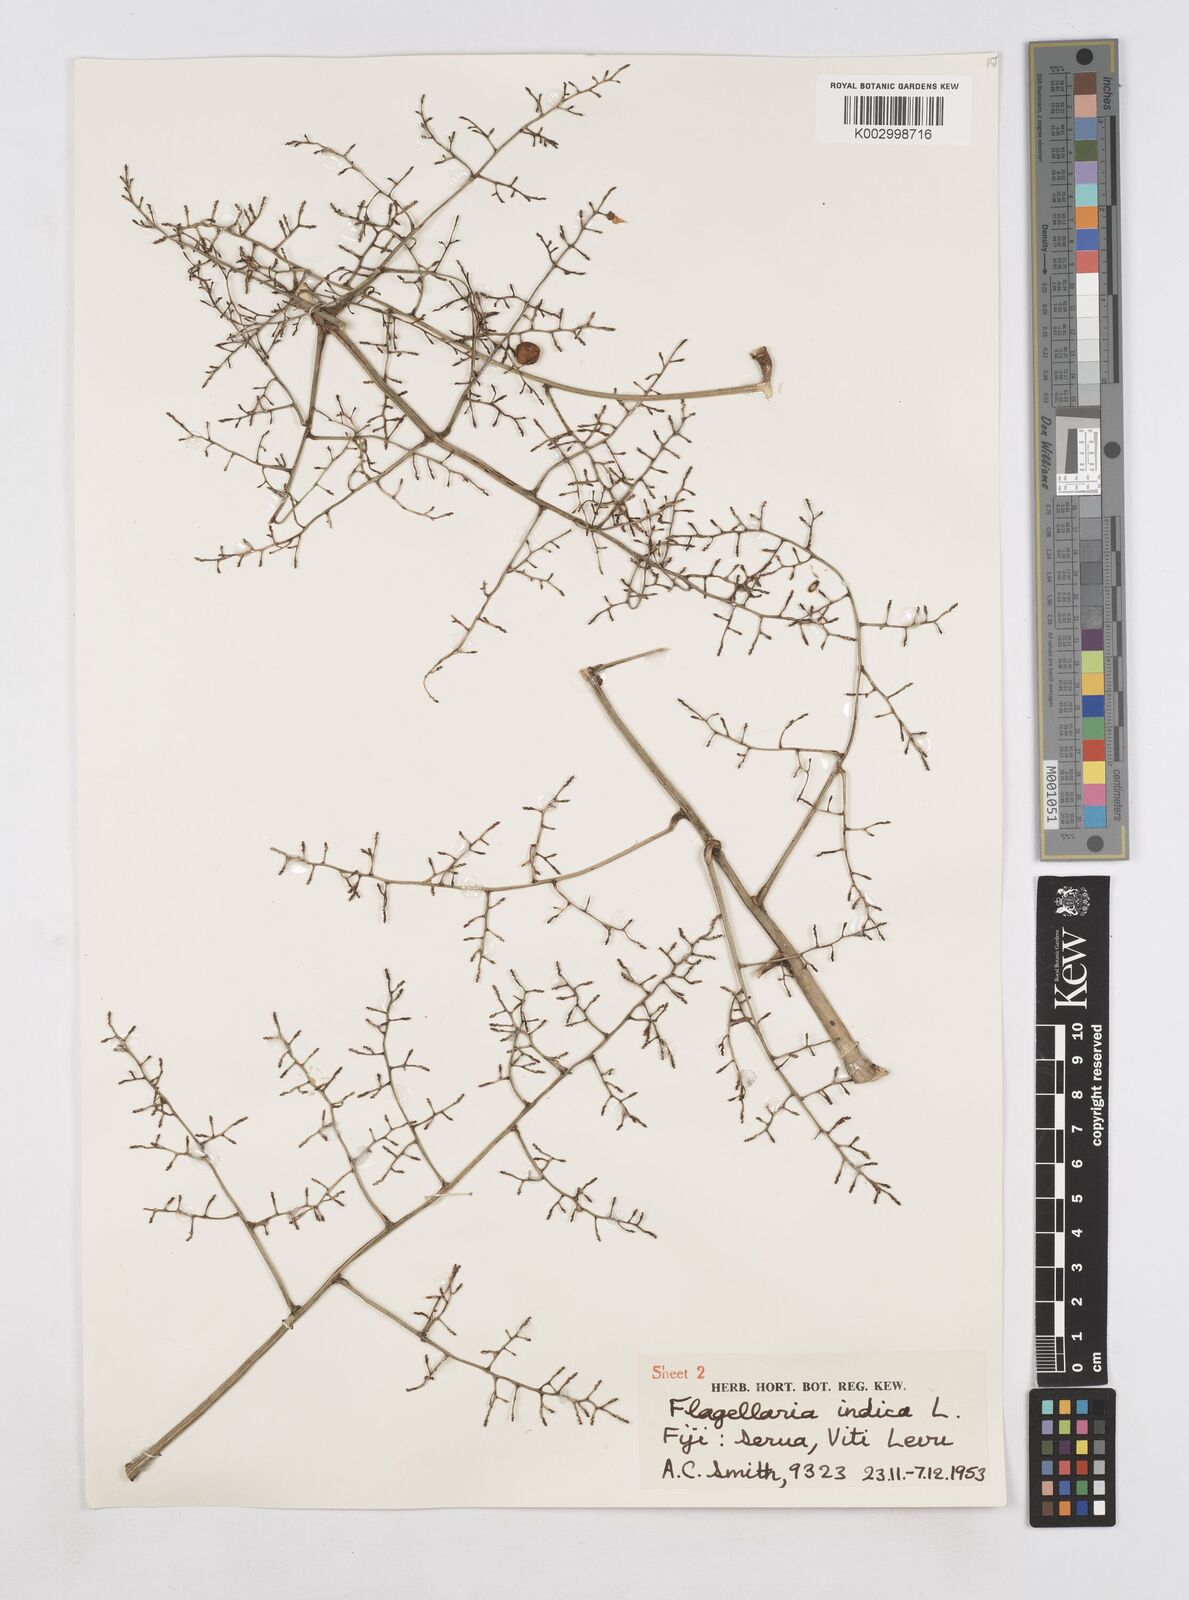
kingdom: Plantae
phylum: Tracheophyta
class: Liliopsida
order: Poales
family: Flagellariaceae
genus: Flagellaria
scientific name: Flagellaria indica
